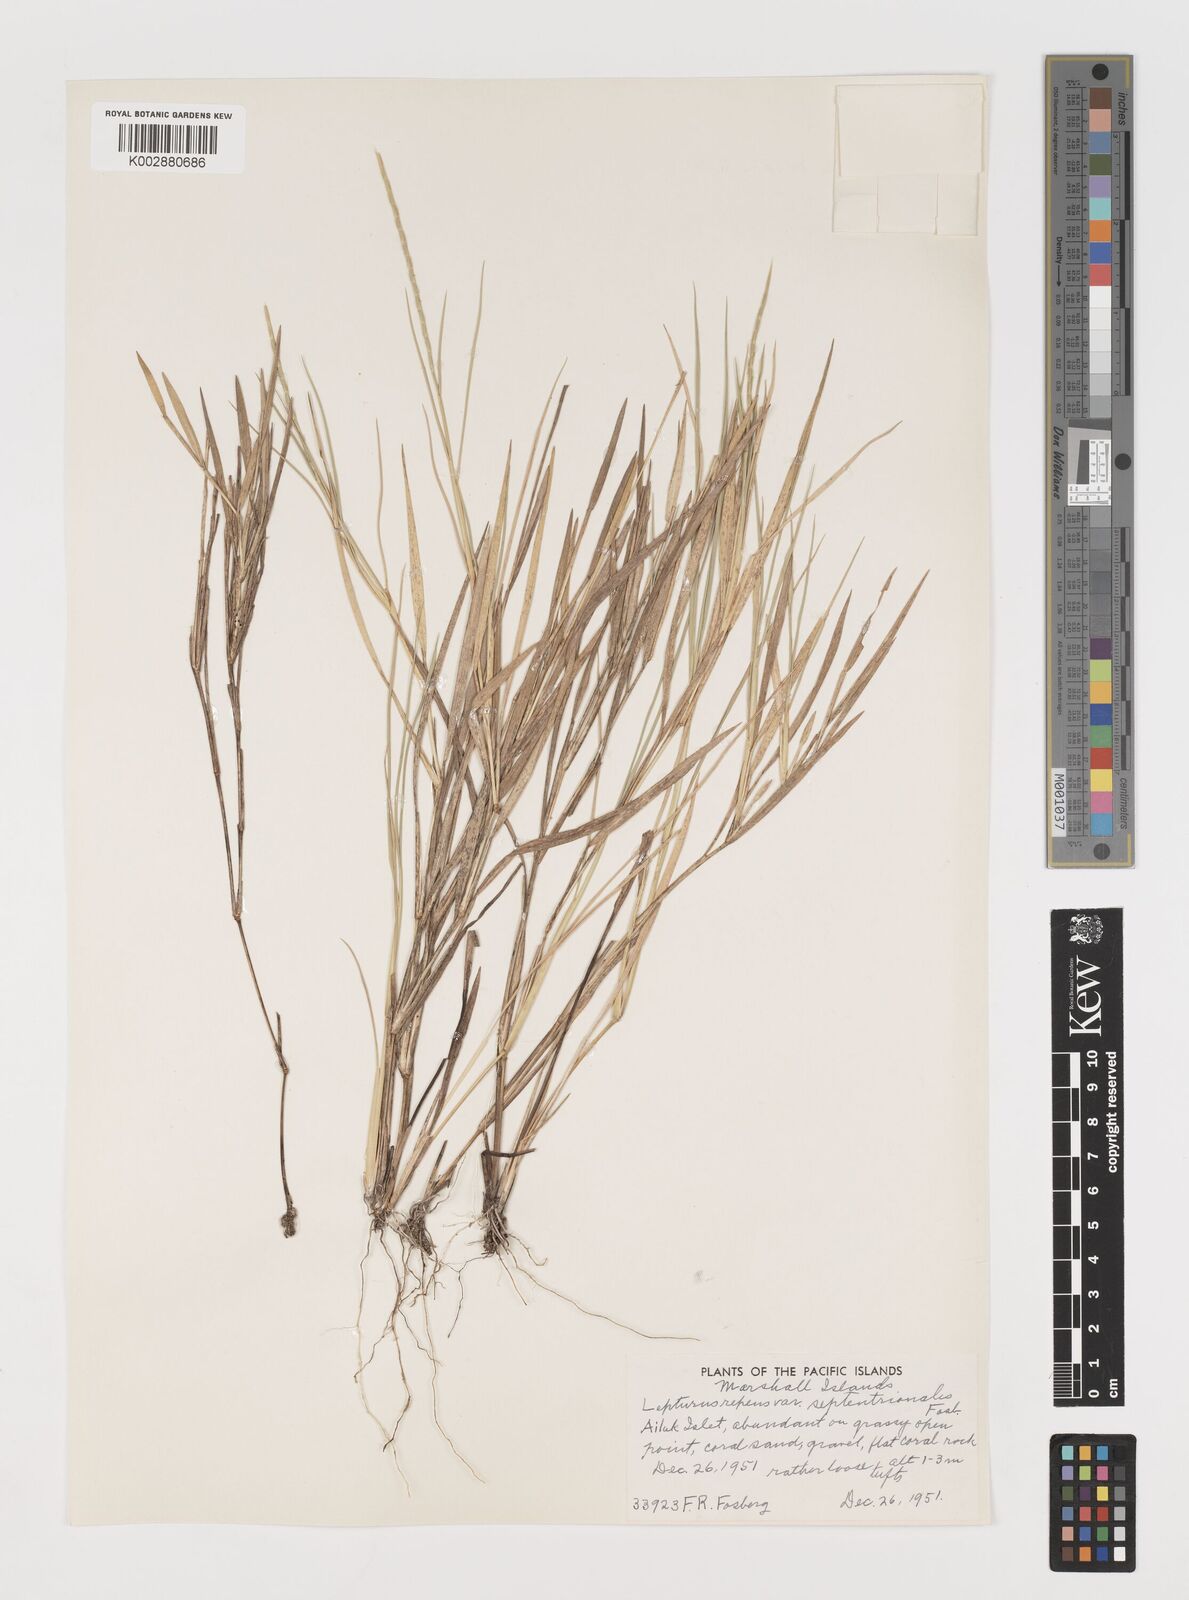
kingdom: Plantae
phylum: Tracheophyta
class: Liliopsida
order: Poales
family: Poaceae
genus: Lepturus
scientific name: Lepturus repens
